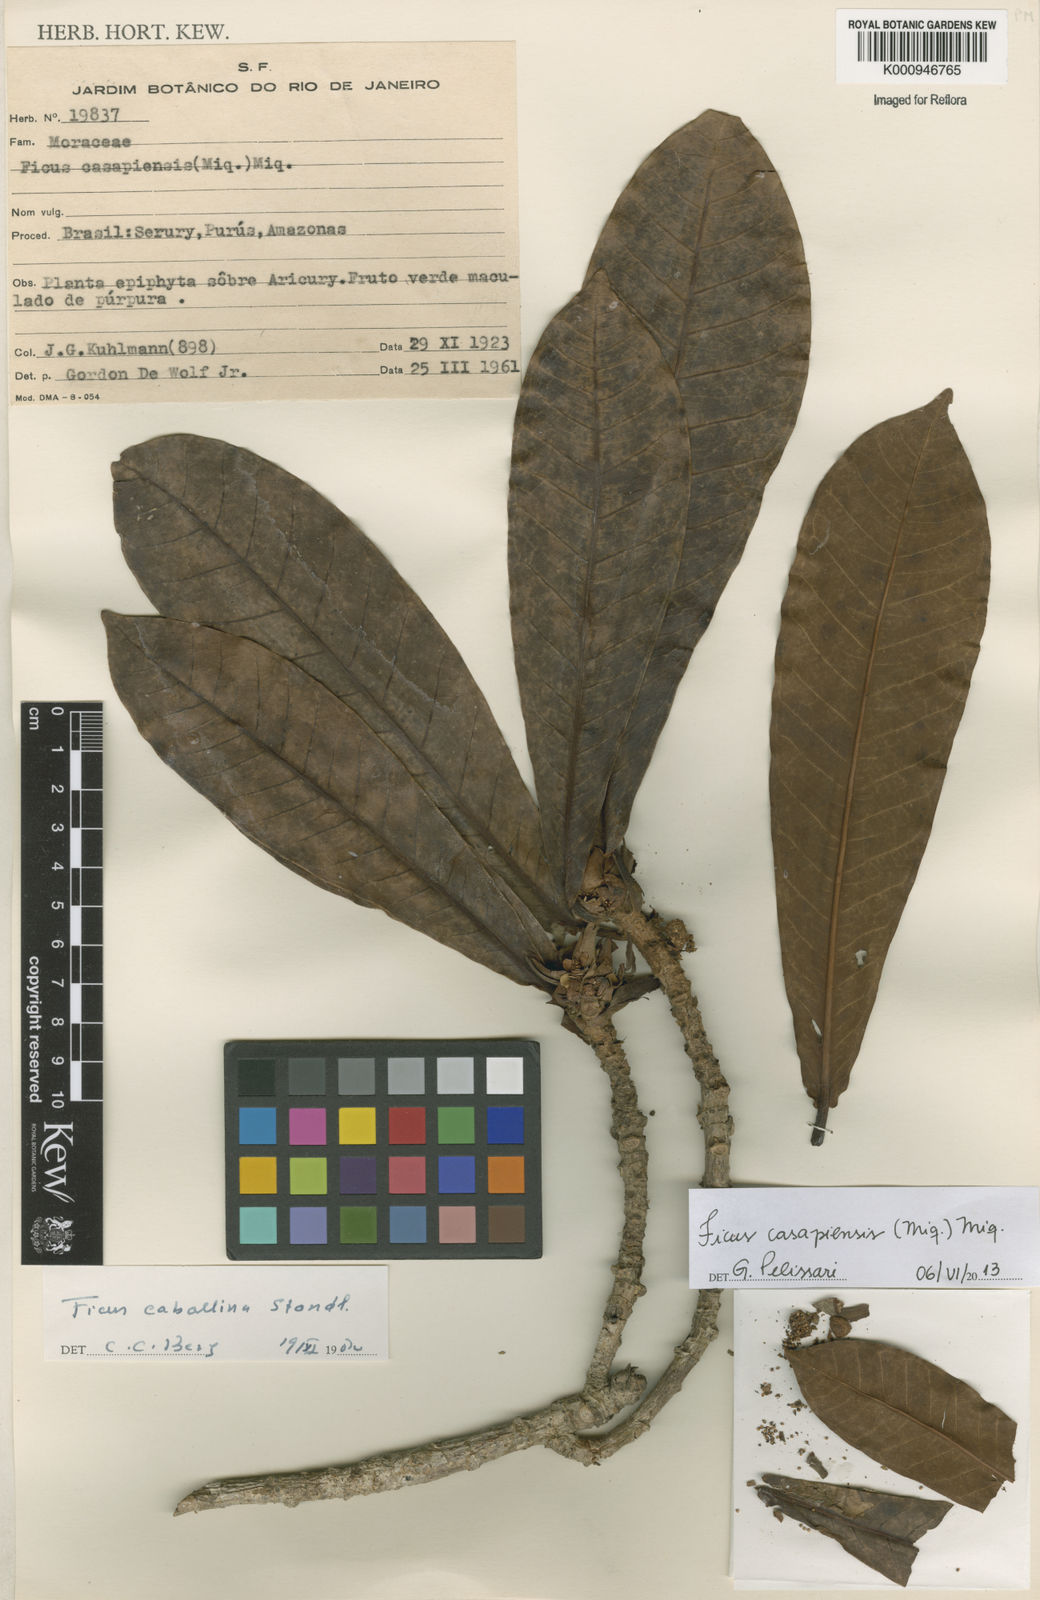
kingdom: Plantae
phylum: Tracheophyta
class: Magnoliopsida
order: Rosales
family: Moraceae
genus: Ficus
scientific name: Ficus casapiensis
